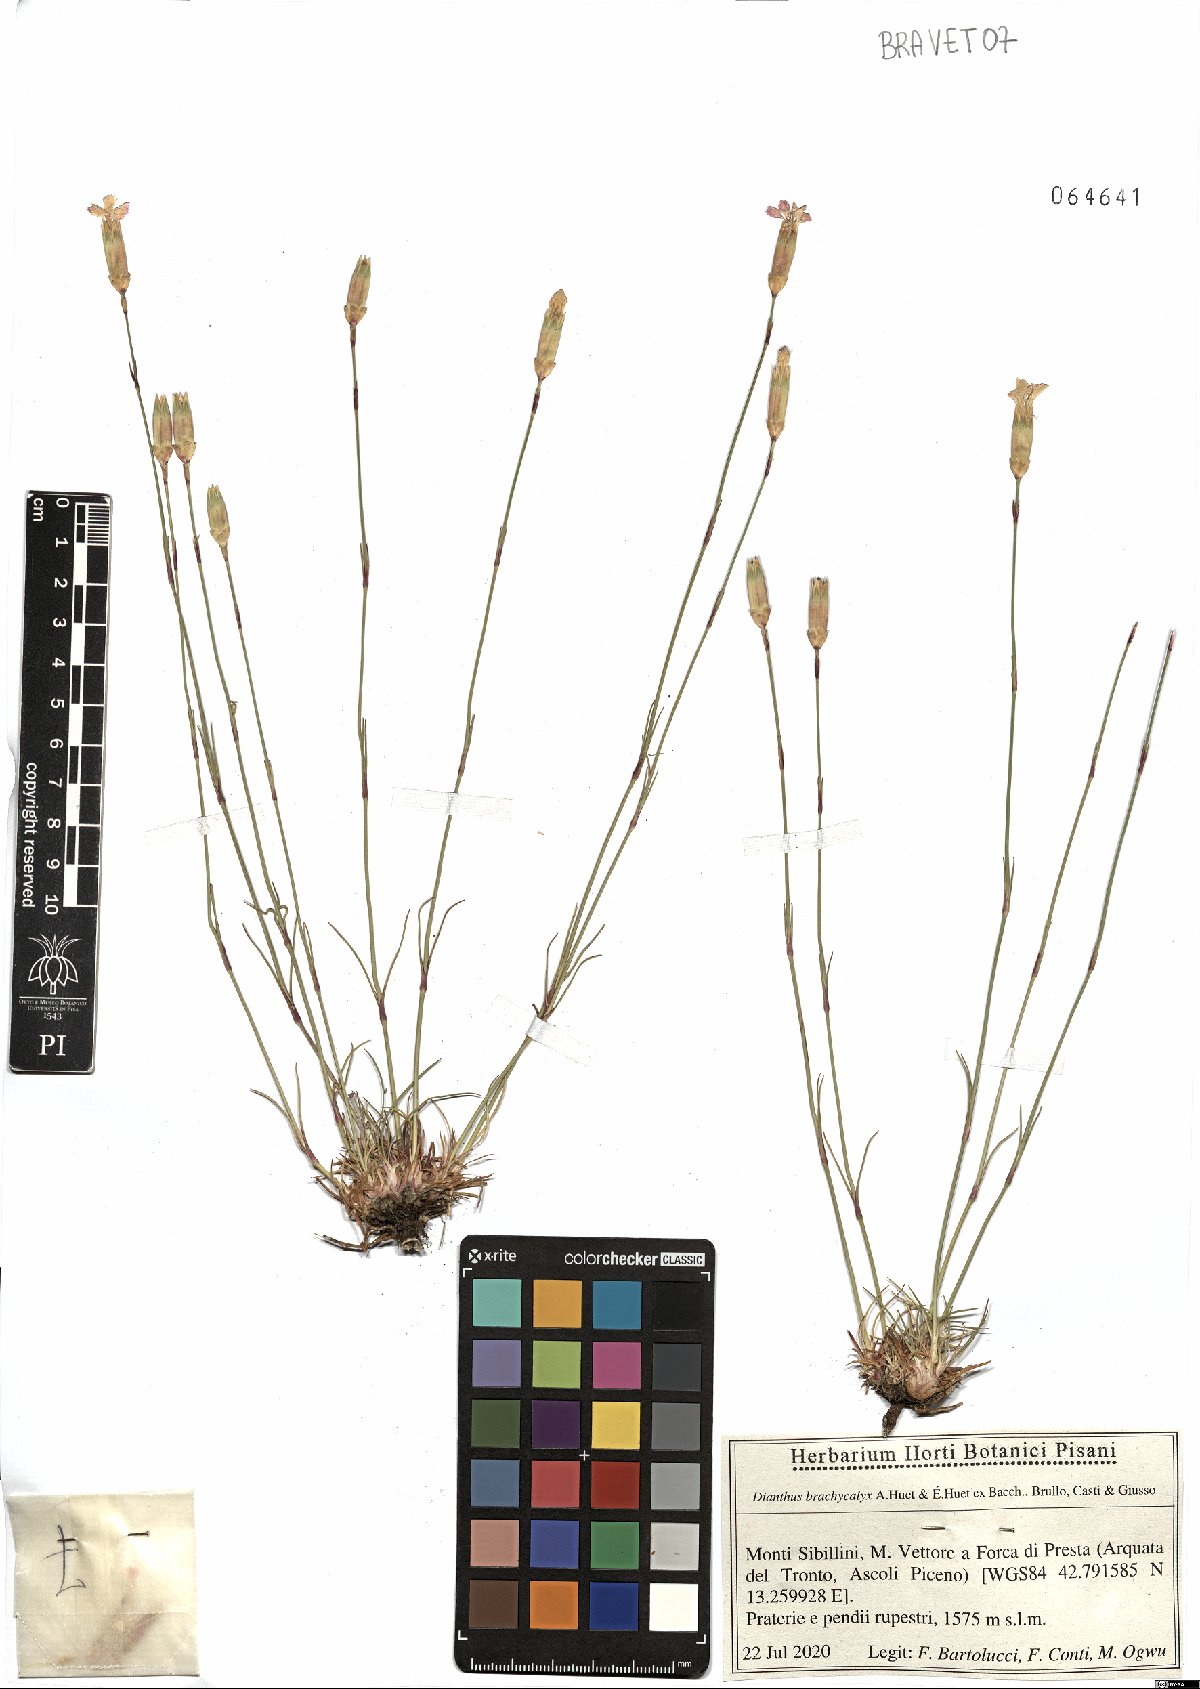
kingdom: Plantae
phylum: Tracheophyta
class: Magnoliopsida
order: Caryophyllales
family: Caryophyllaceae
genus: Dianthus
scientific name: Dianthus brachycalyx
